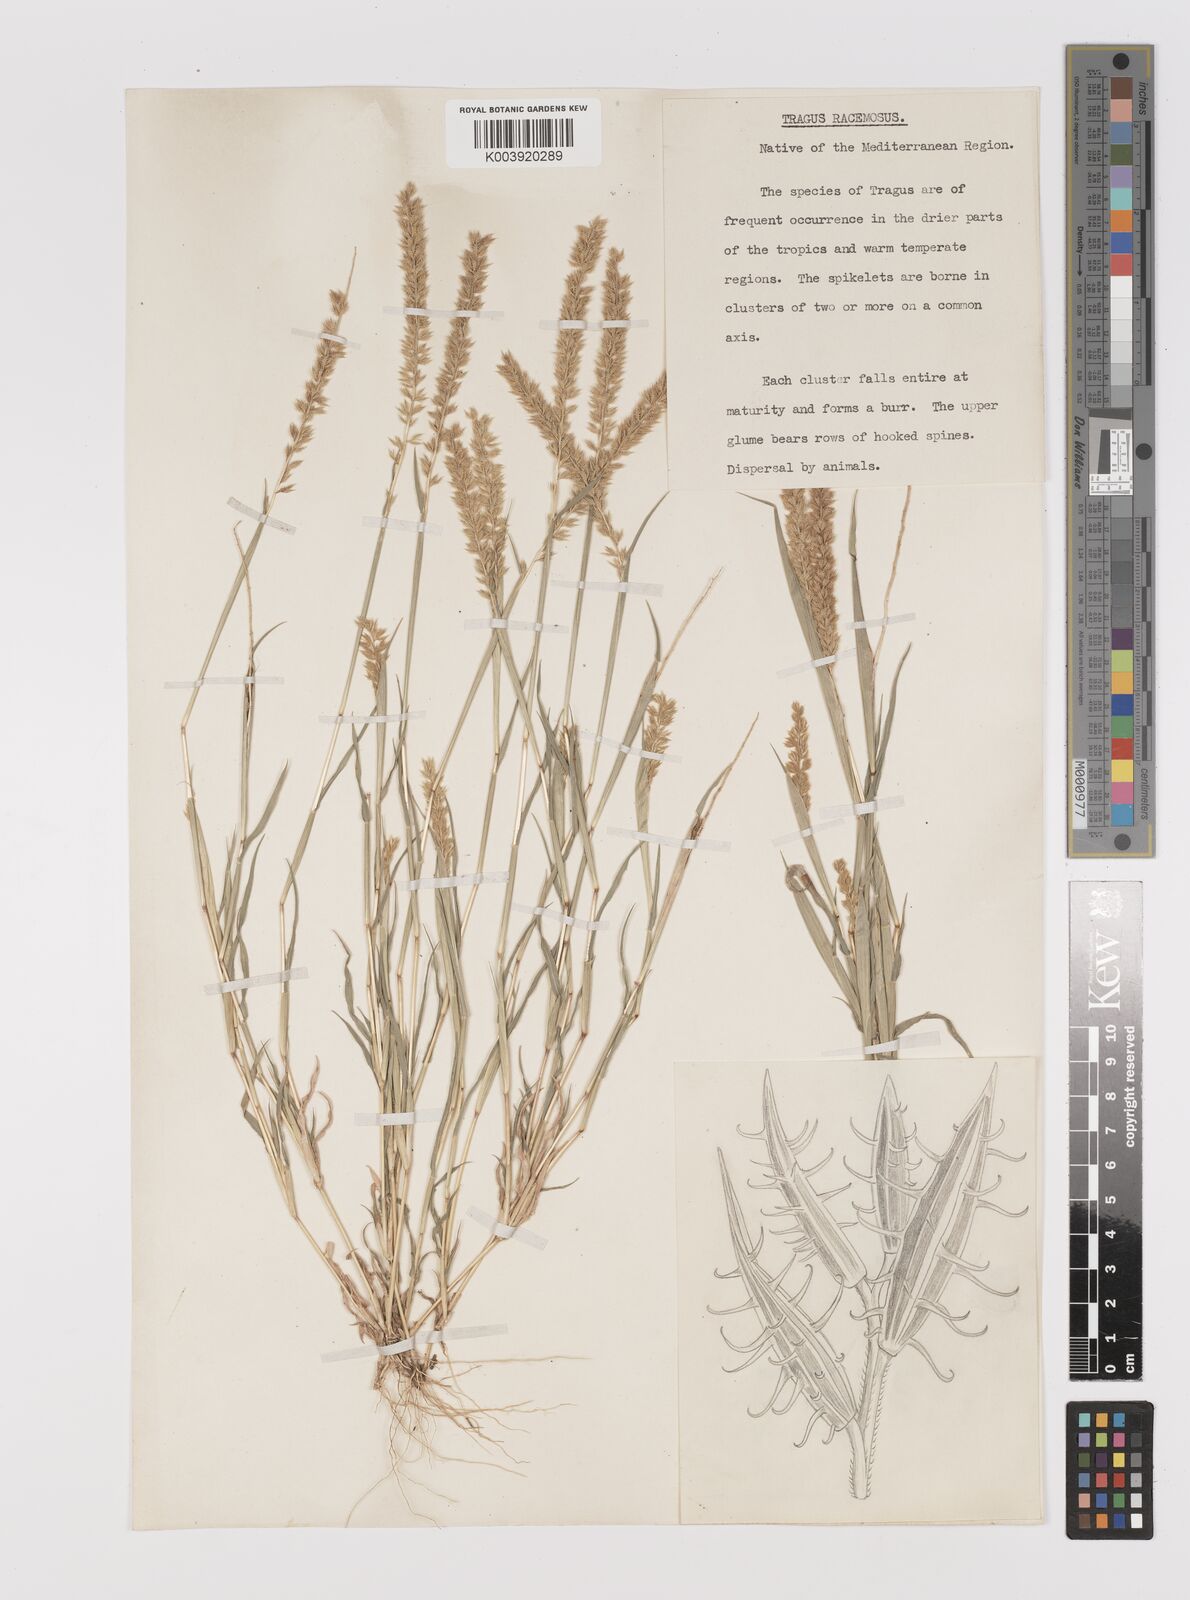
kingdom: Plantae
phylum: Tracheophyta
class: Liliopsida
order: Poales
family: Poaceae
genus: Tragus
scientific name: Tragus racemosus
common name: European bur-grass
